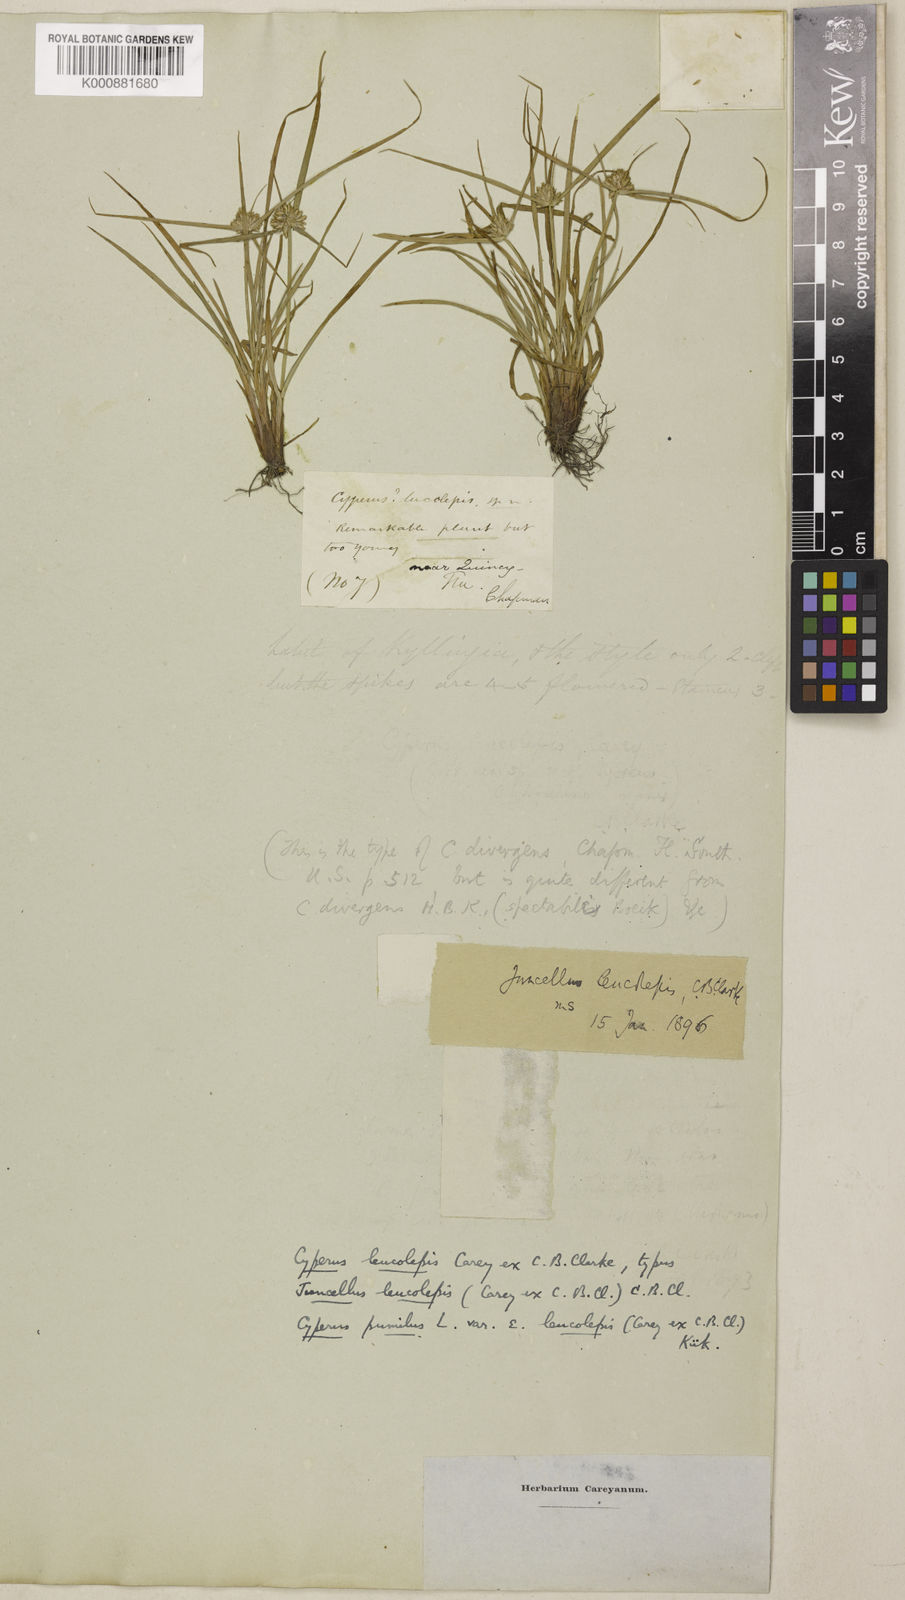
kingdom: Plantae
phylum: Tracheophyta
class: Liliopsida
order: Poales
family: Cyperaceae
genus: Cyperus
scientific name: Cyperus pumilus
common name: Low flatsedge
